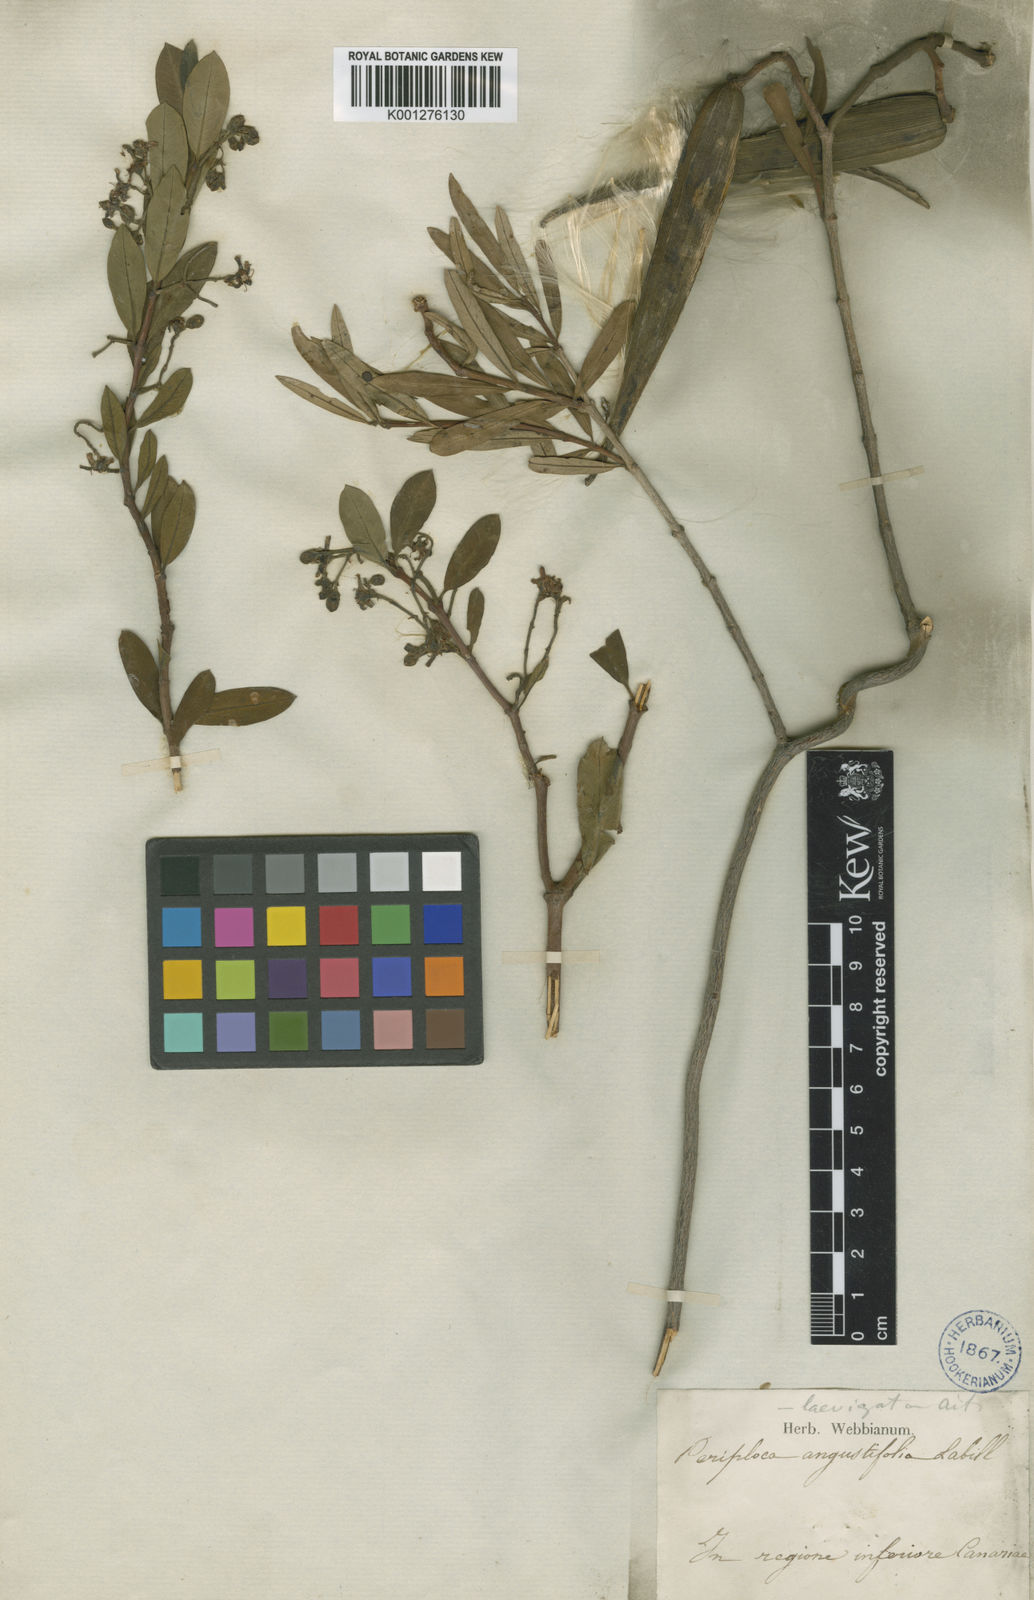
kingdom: Plantae
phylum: Tracheophyta
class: Magnoliopsida
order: Gentianales
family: Apocynaceae
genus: Periploca
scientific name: Periploca laevigata
